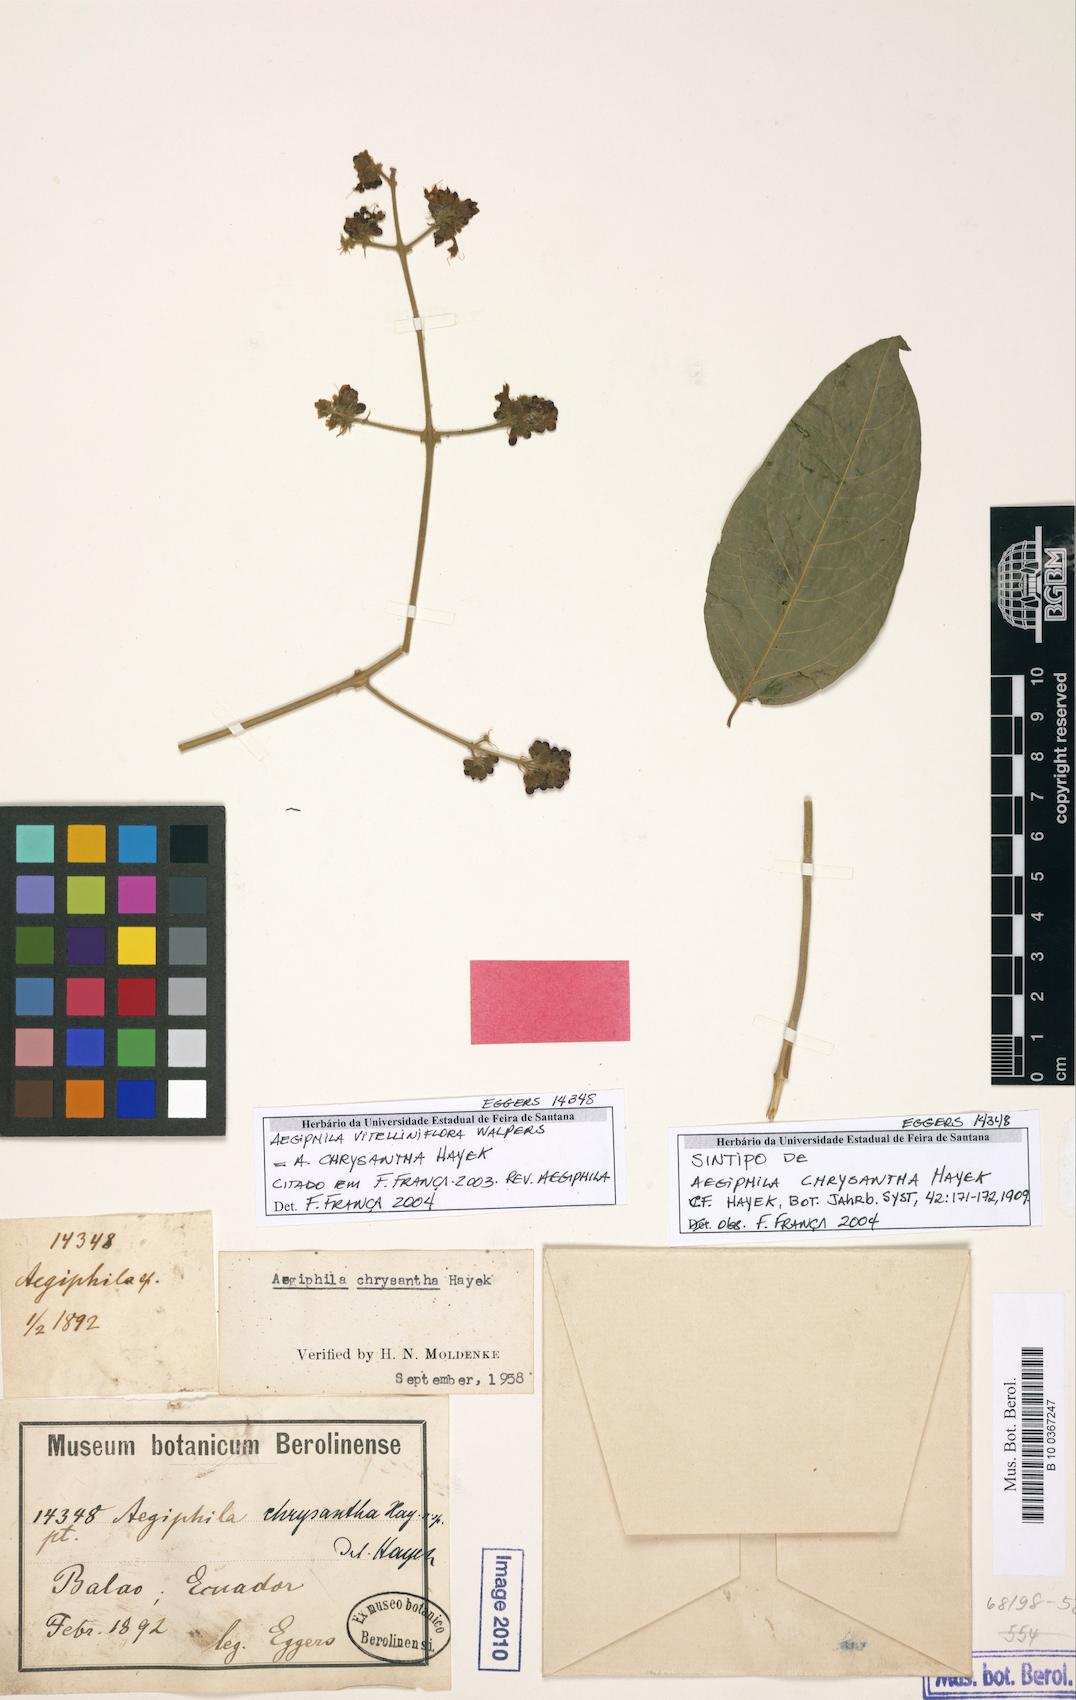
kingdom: Plantae
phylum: Tracheophyta
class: Magnoliopsida
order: Lamiales
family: Lamiaceae
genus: Aegiphila
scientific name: Aegiphila vitelliniflora
